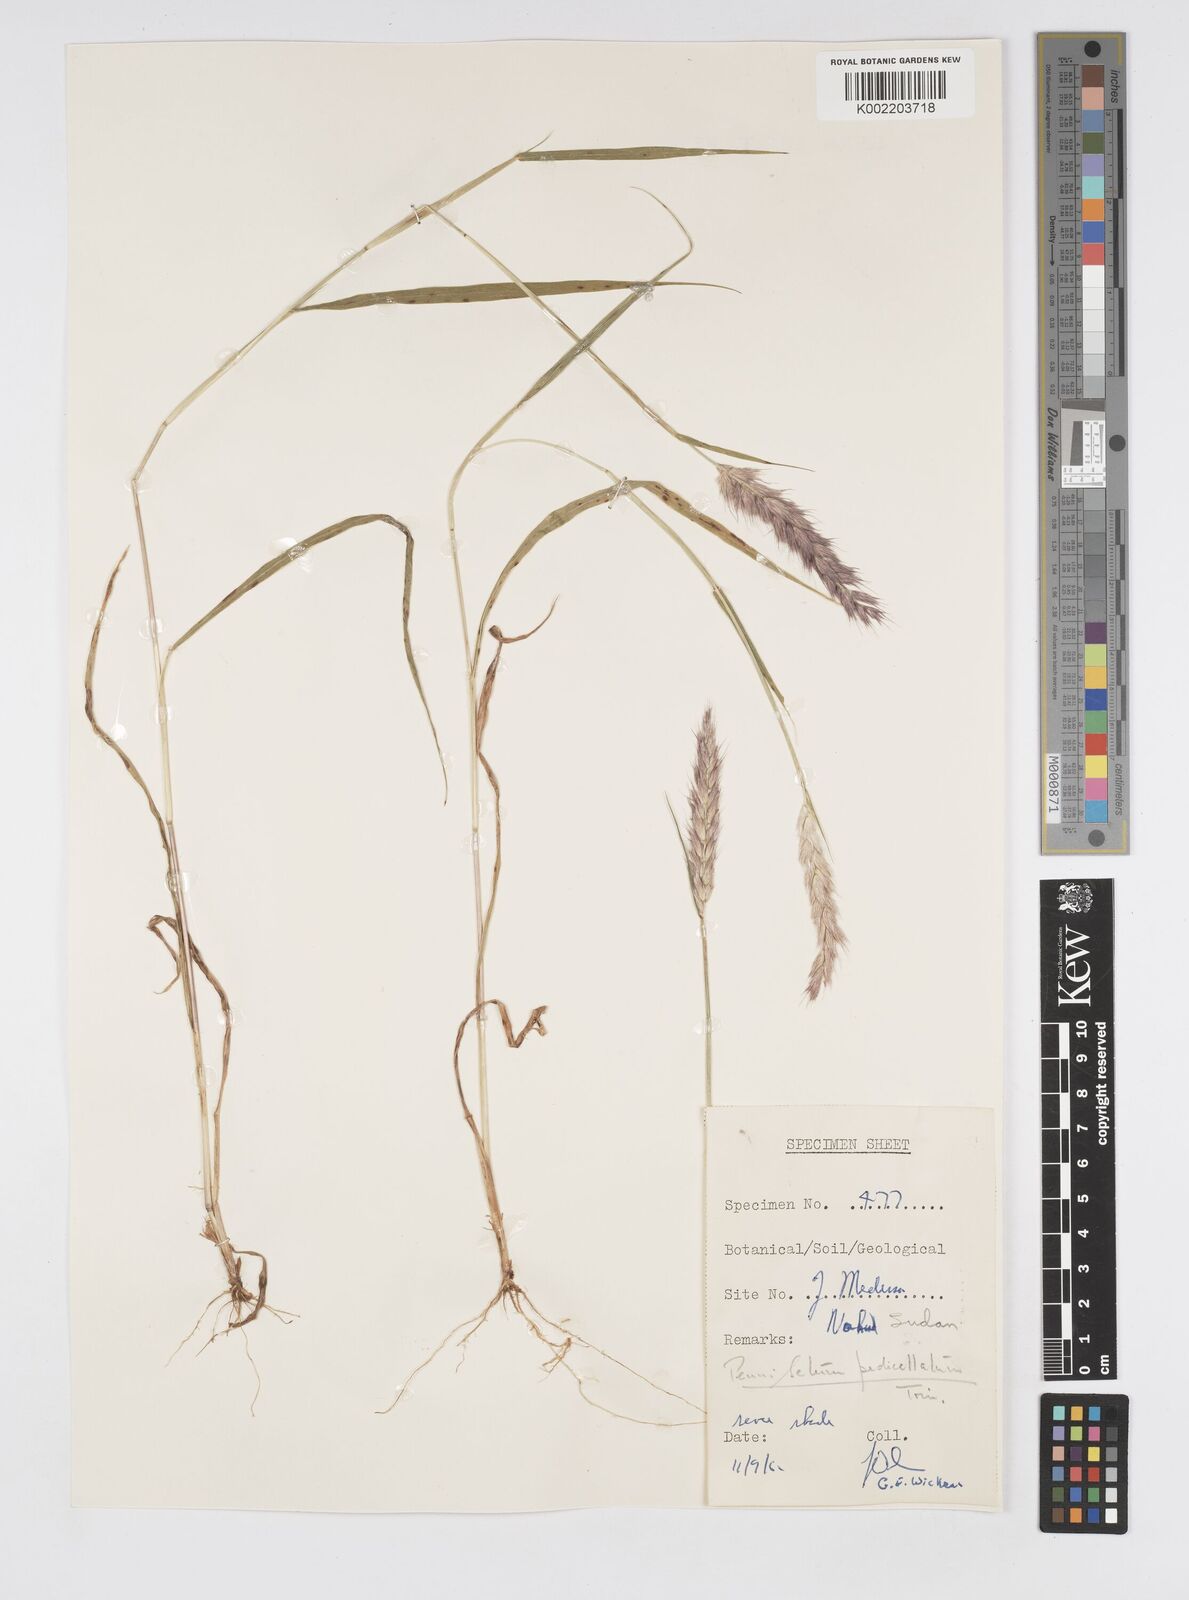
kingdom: Plantae
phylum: Tracheophyta
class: Liliopsida
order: Poales
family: Poaceae
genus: Cenchrus
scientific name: Cenchrus pedicellatus
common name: Hairy fountain grass
